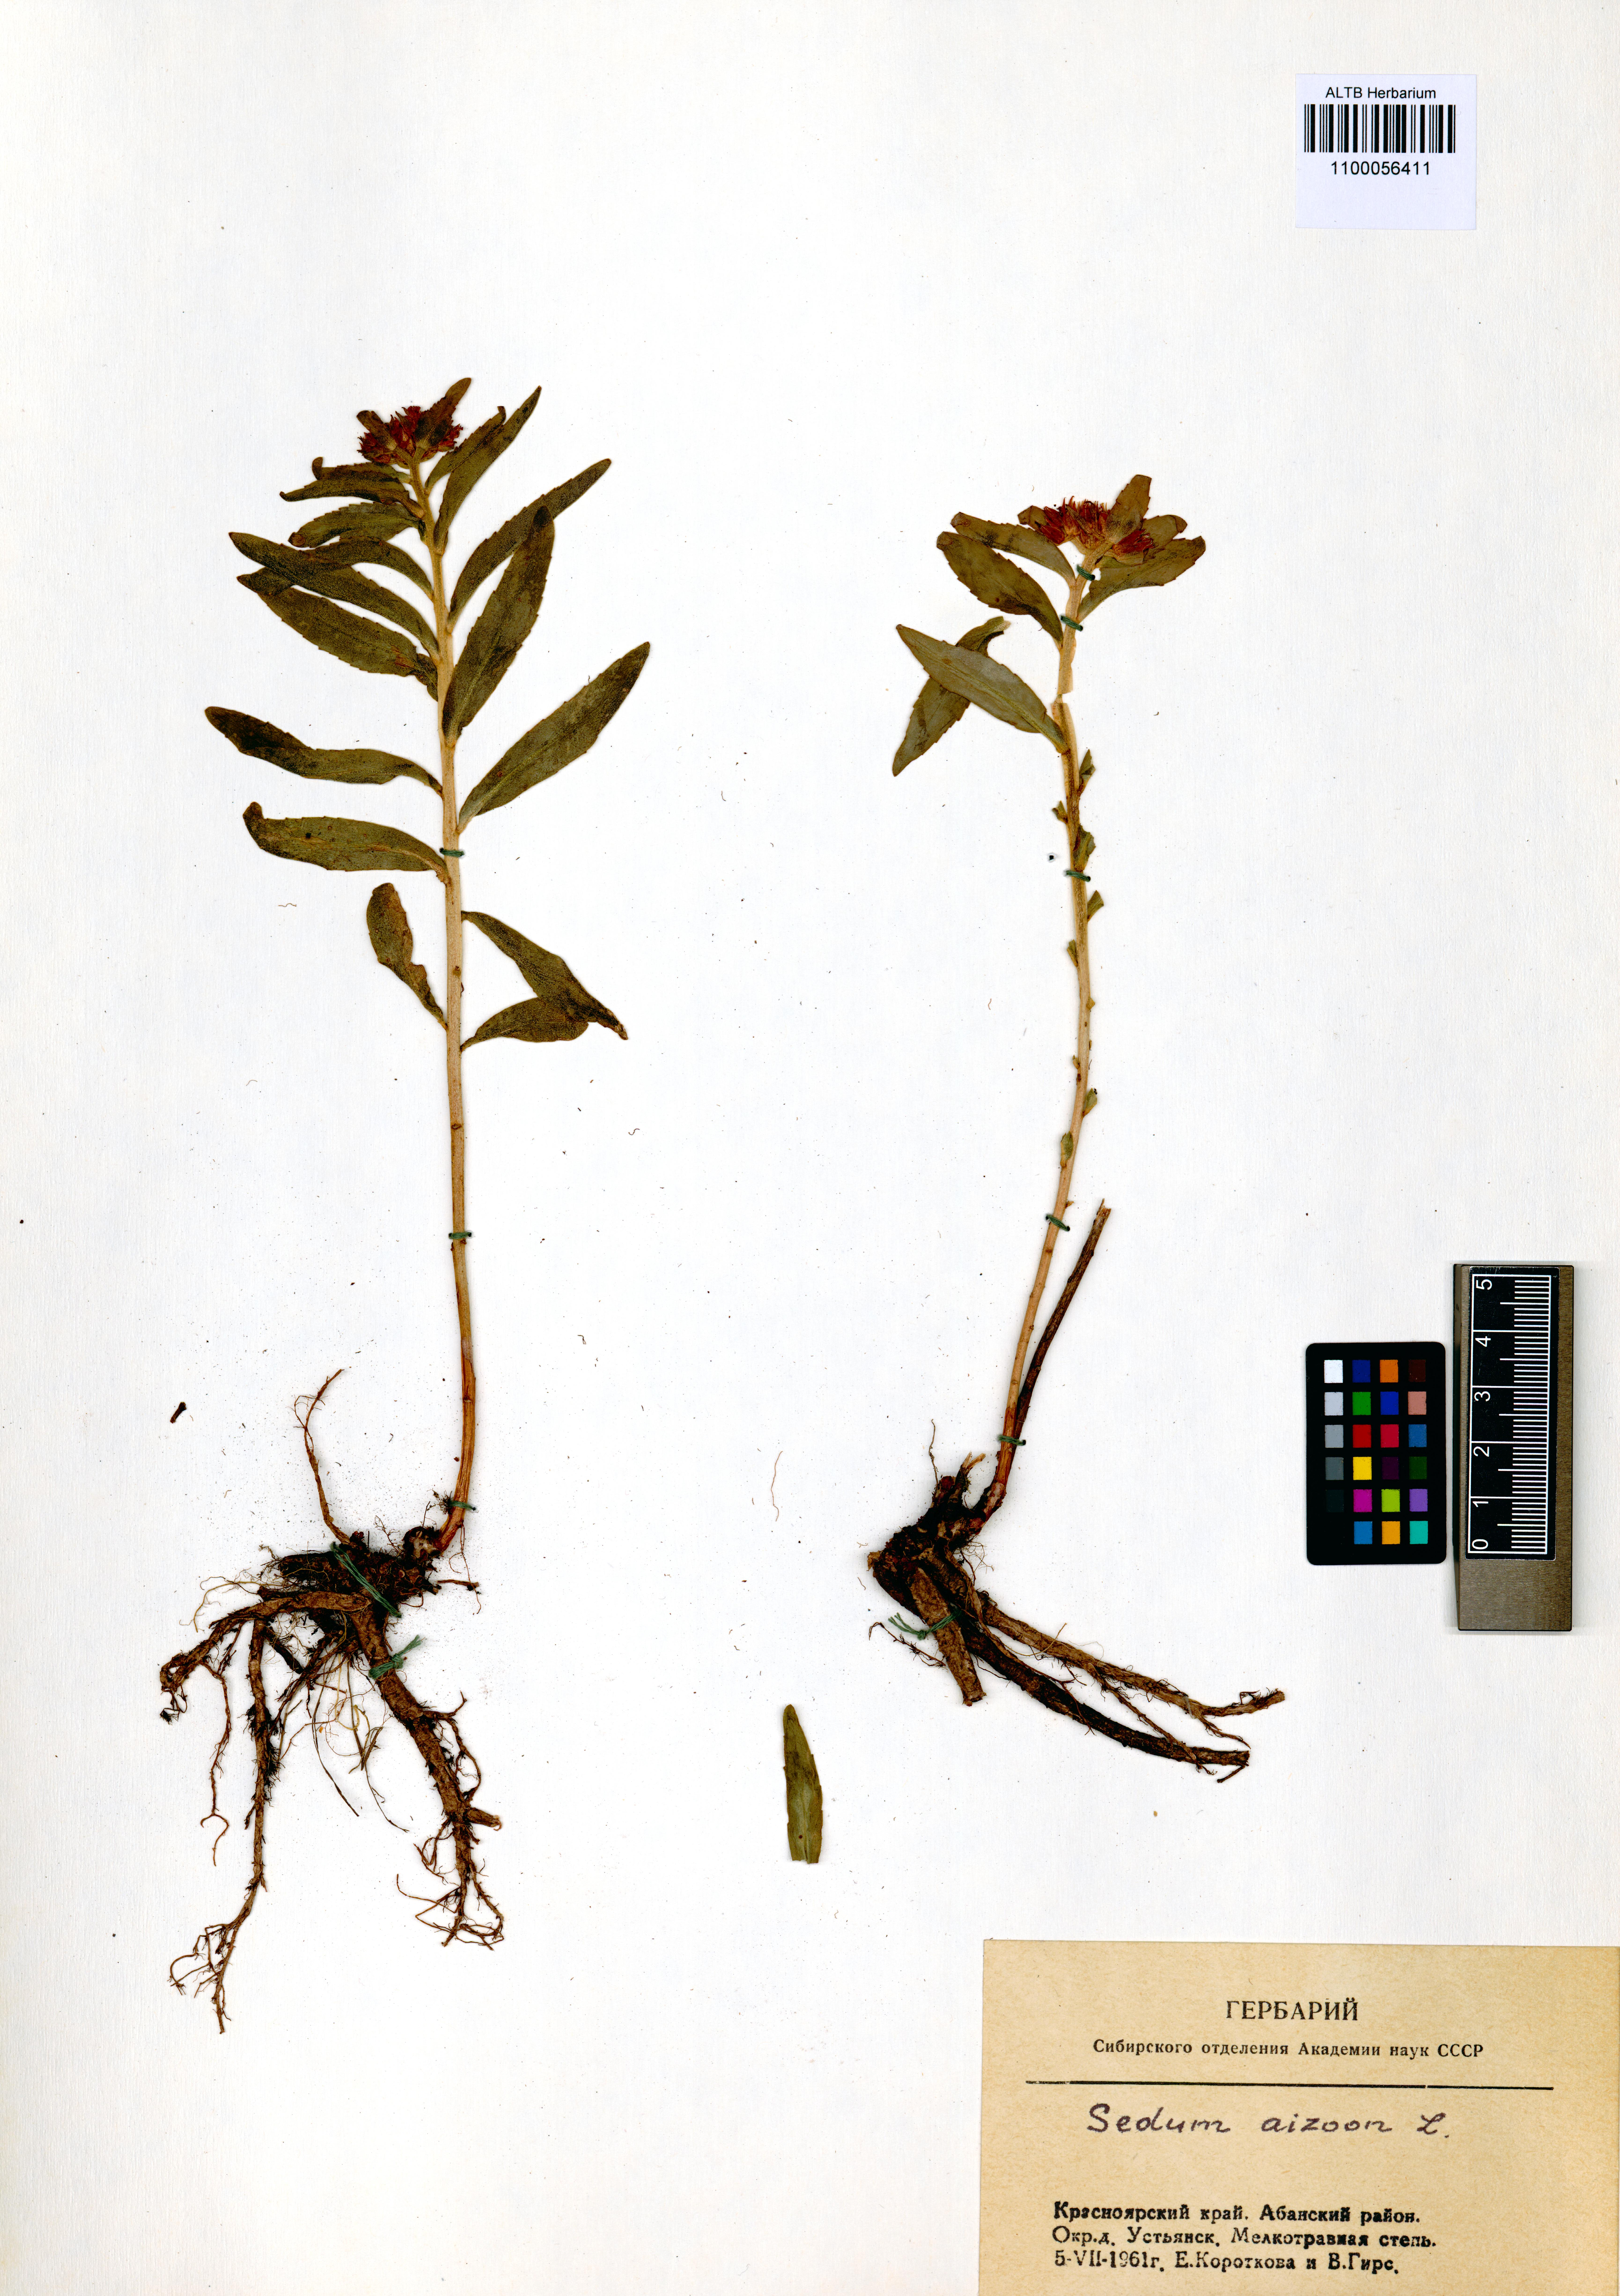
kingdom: Plantae
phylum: Tracheophyta
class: Magnoliopsida
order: Saxifragales
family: Crassulaceae
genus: Phedimus
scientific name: Phedimus aizoon
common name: Orpin aizoon
